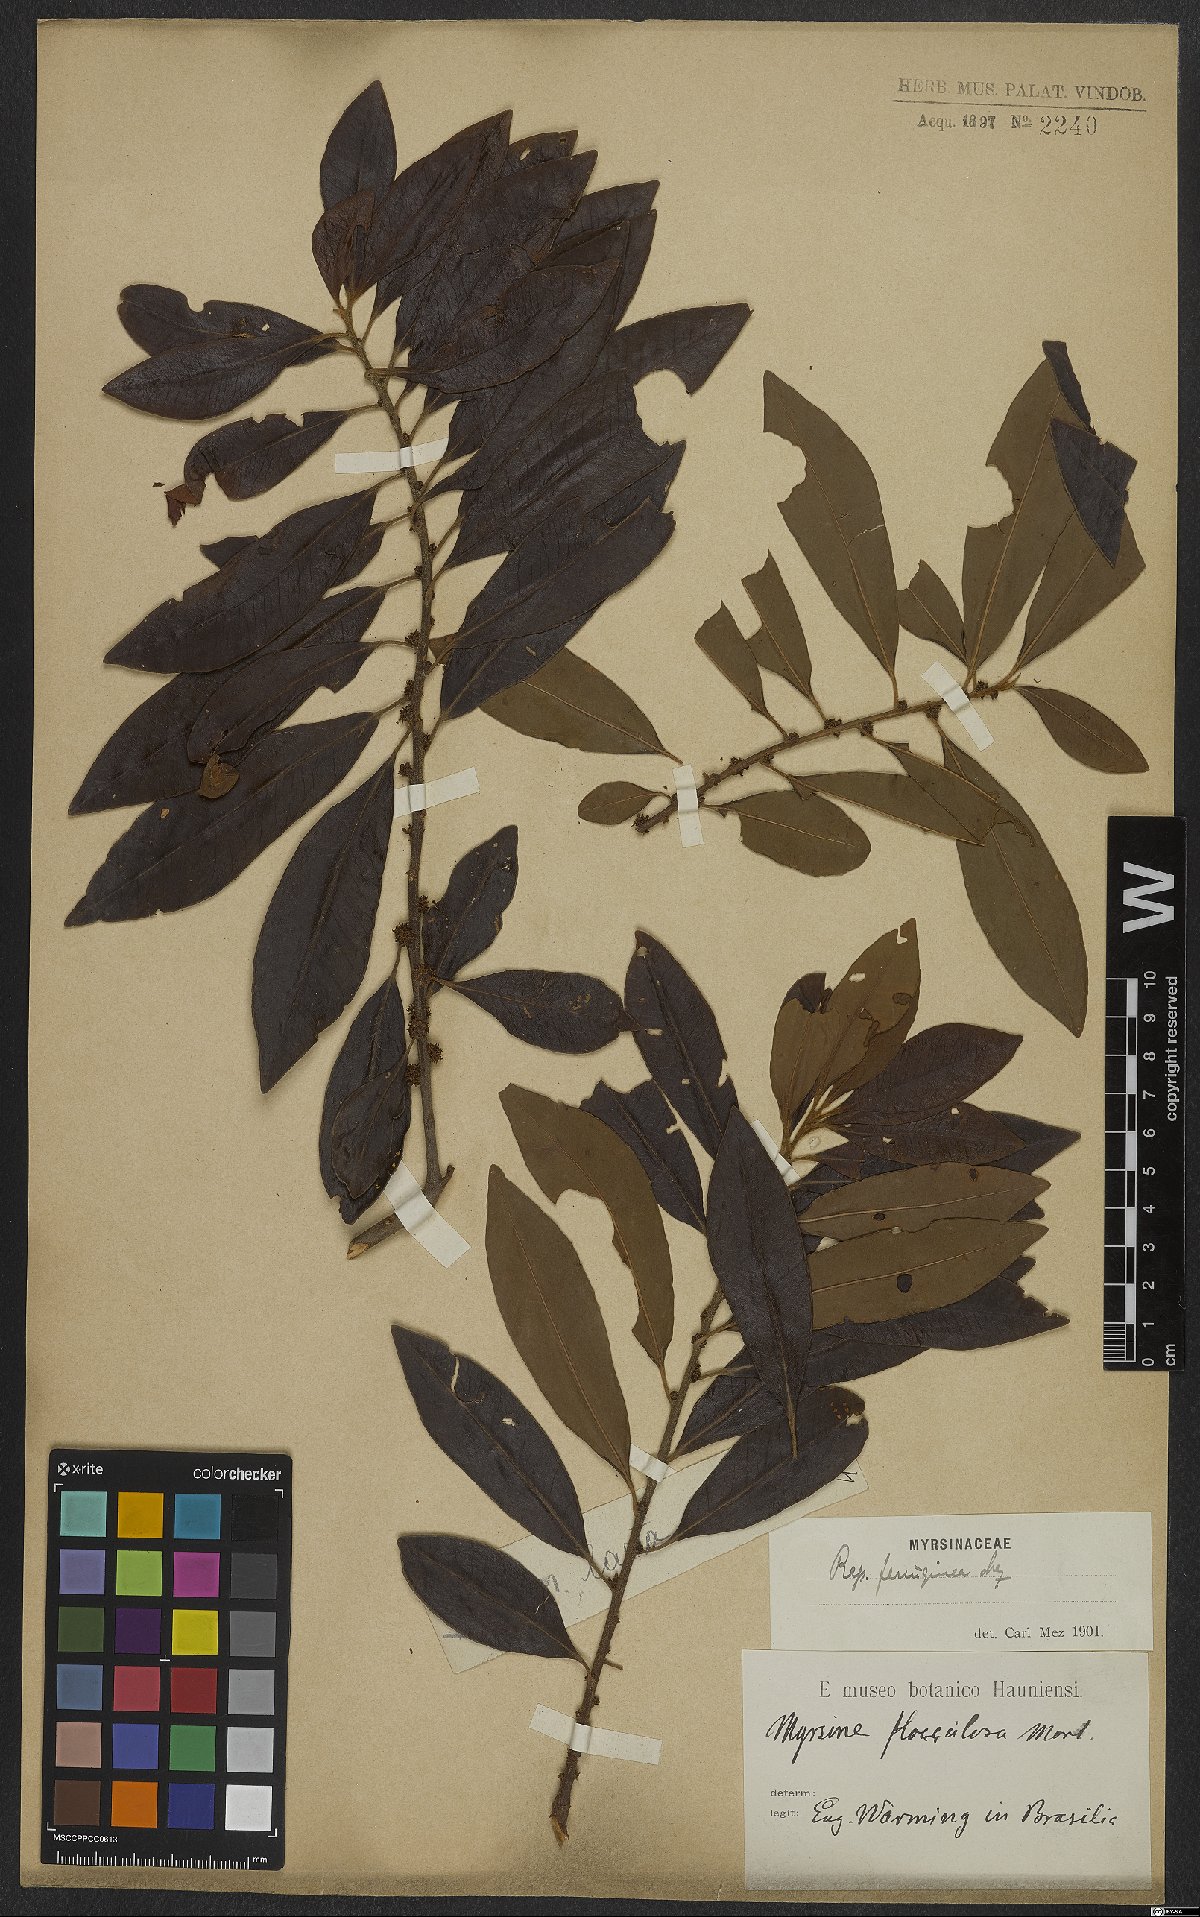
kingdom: Plantae
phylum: Tracheophyta
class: Magnoliopsida
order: Ericales
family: Primulaceae
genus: Myrsine
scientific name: Myrsine coriacea
